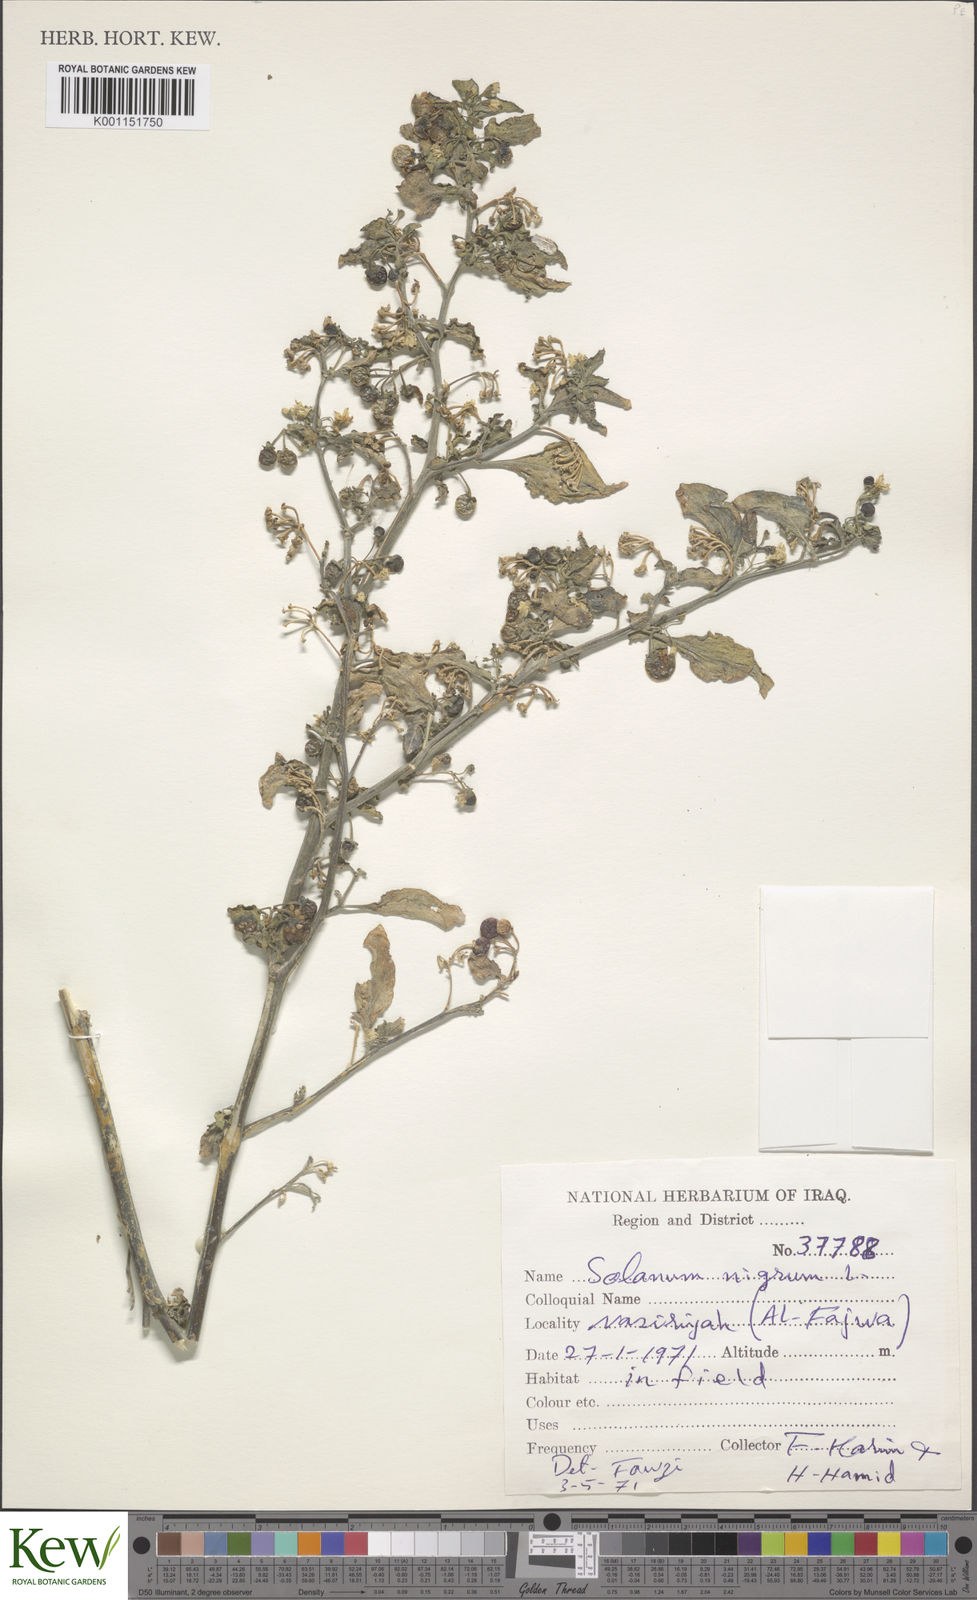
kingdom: Plantae
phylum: Tracheophyta
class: Magnoliopsida
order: Solanales
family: Solanaceae
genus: Solanum
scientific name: Solanum nigrum
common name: Black nightshade
